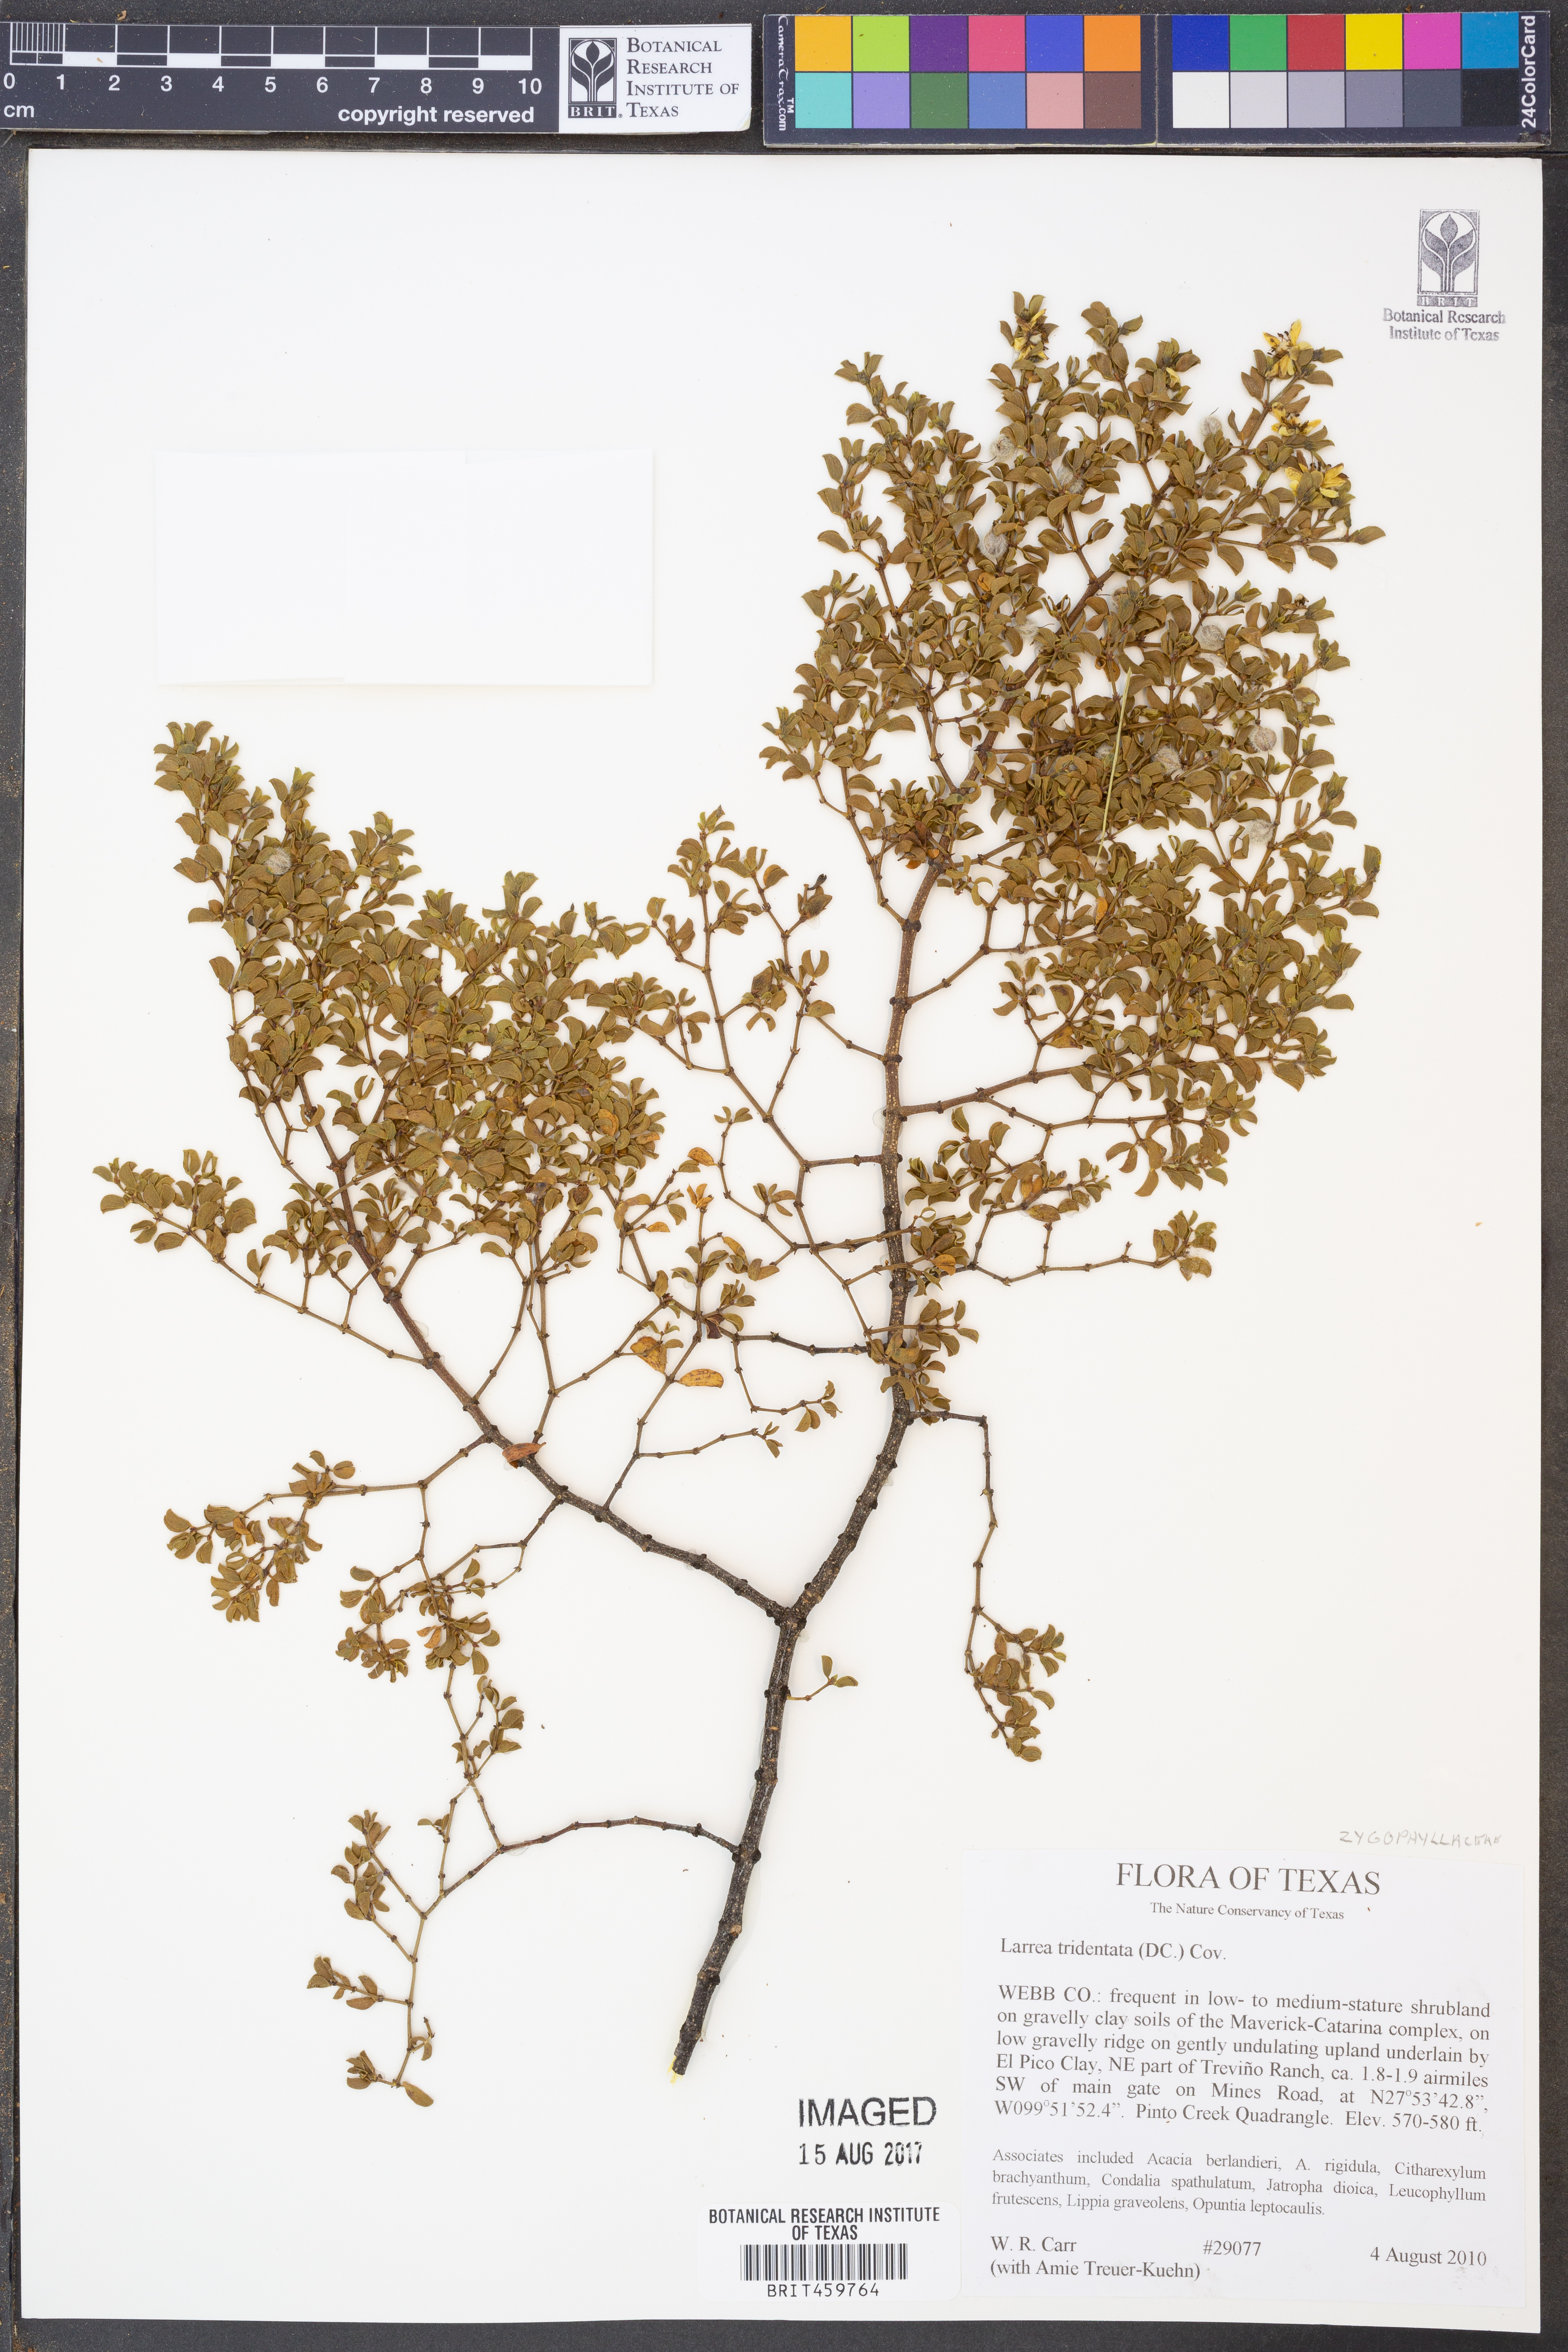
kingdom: Plantae
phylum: Tracheophyta
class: Magnoliopsida
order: Zygophyllales
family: Zygophyllaceae
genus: Larrea
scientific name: Larrea tridentata
